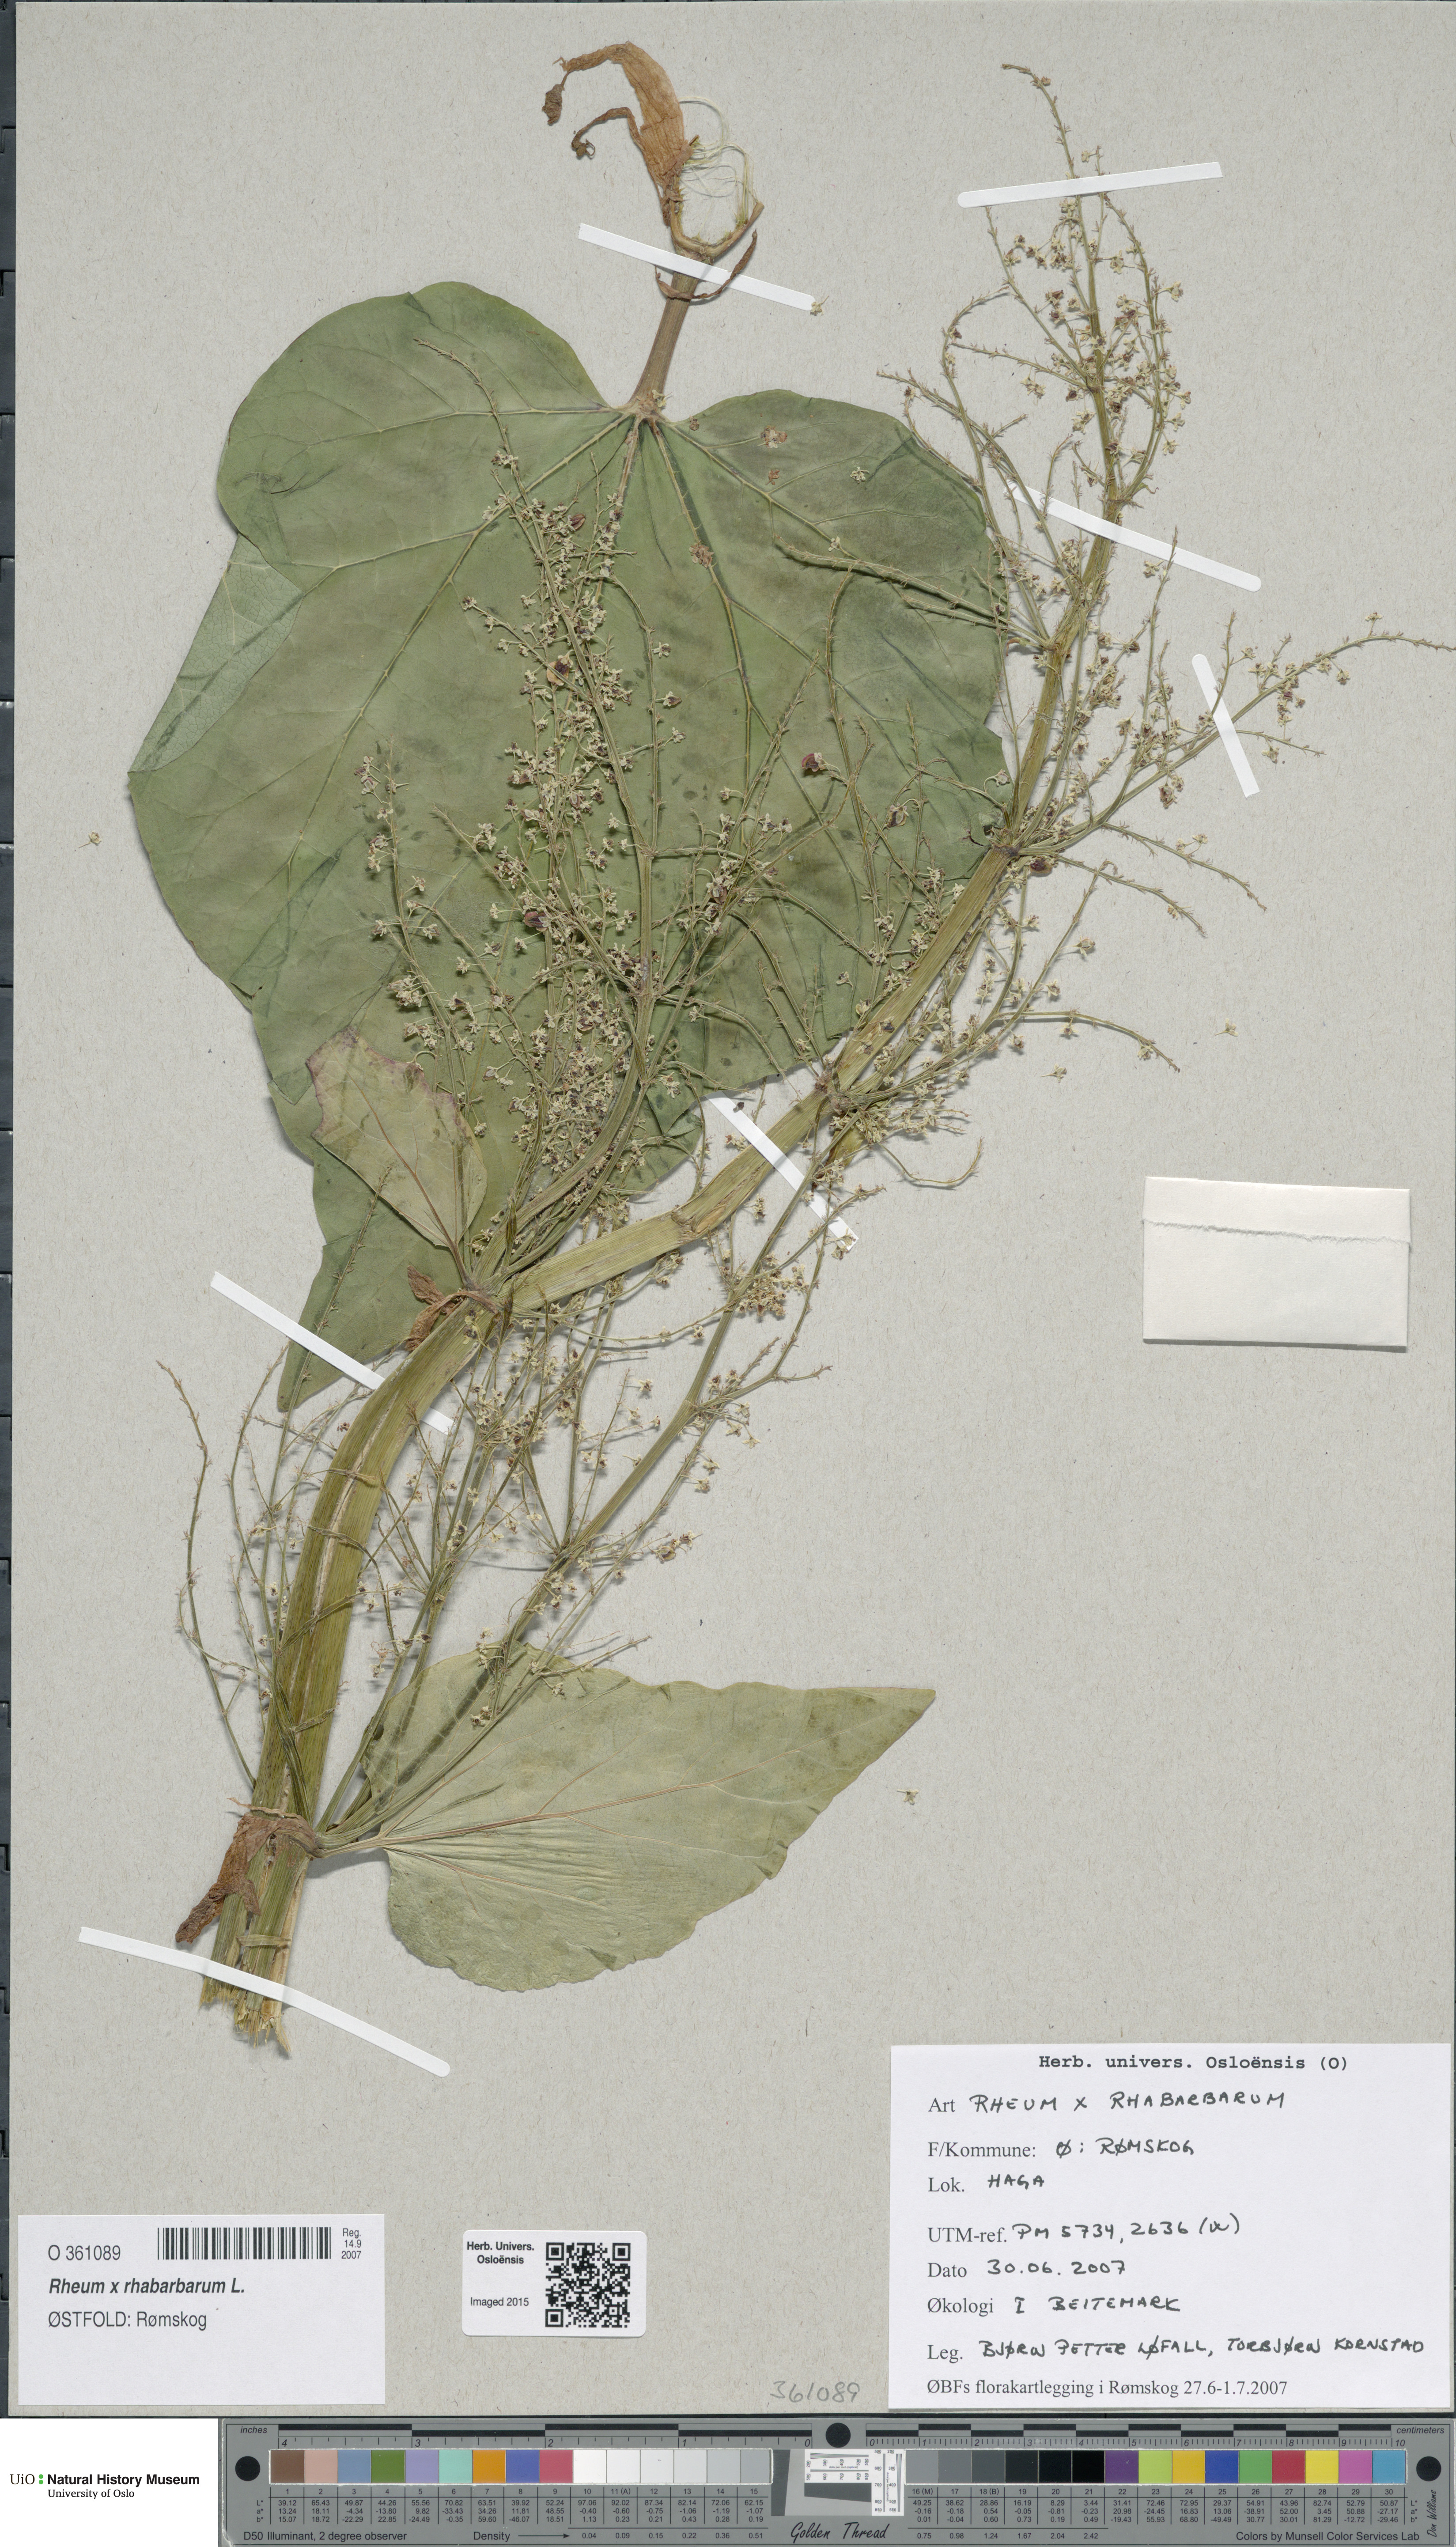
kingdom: Plantae
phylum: Tracheophyta
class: Magnoliopsida
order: Caryophyllales
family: Polygonaceae
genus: Rheum
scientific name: Rheum rhabarbarum
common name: Garden rhubarb
